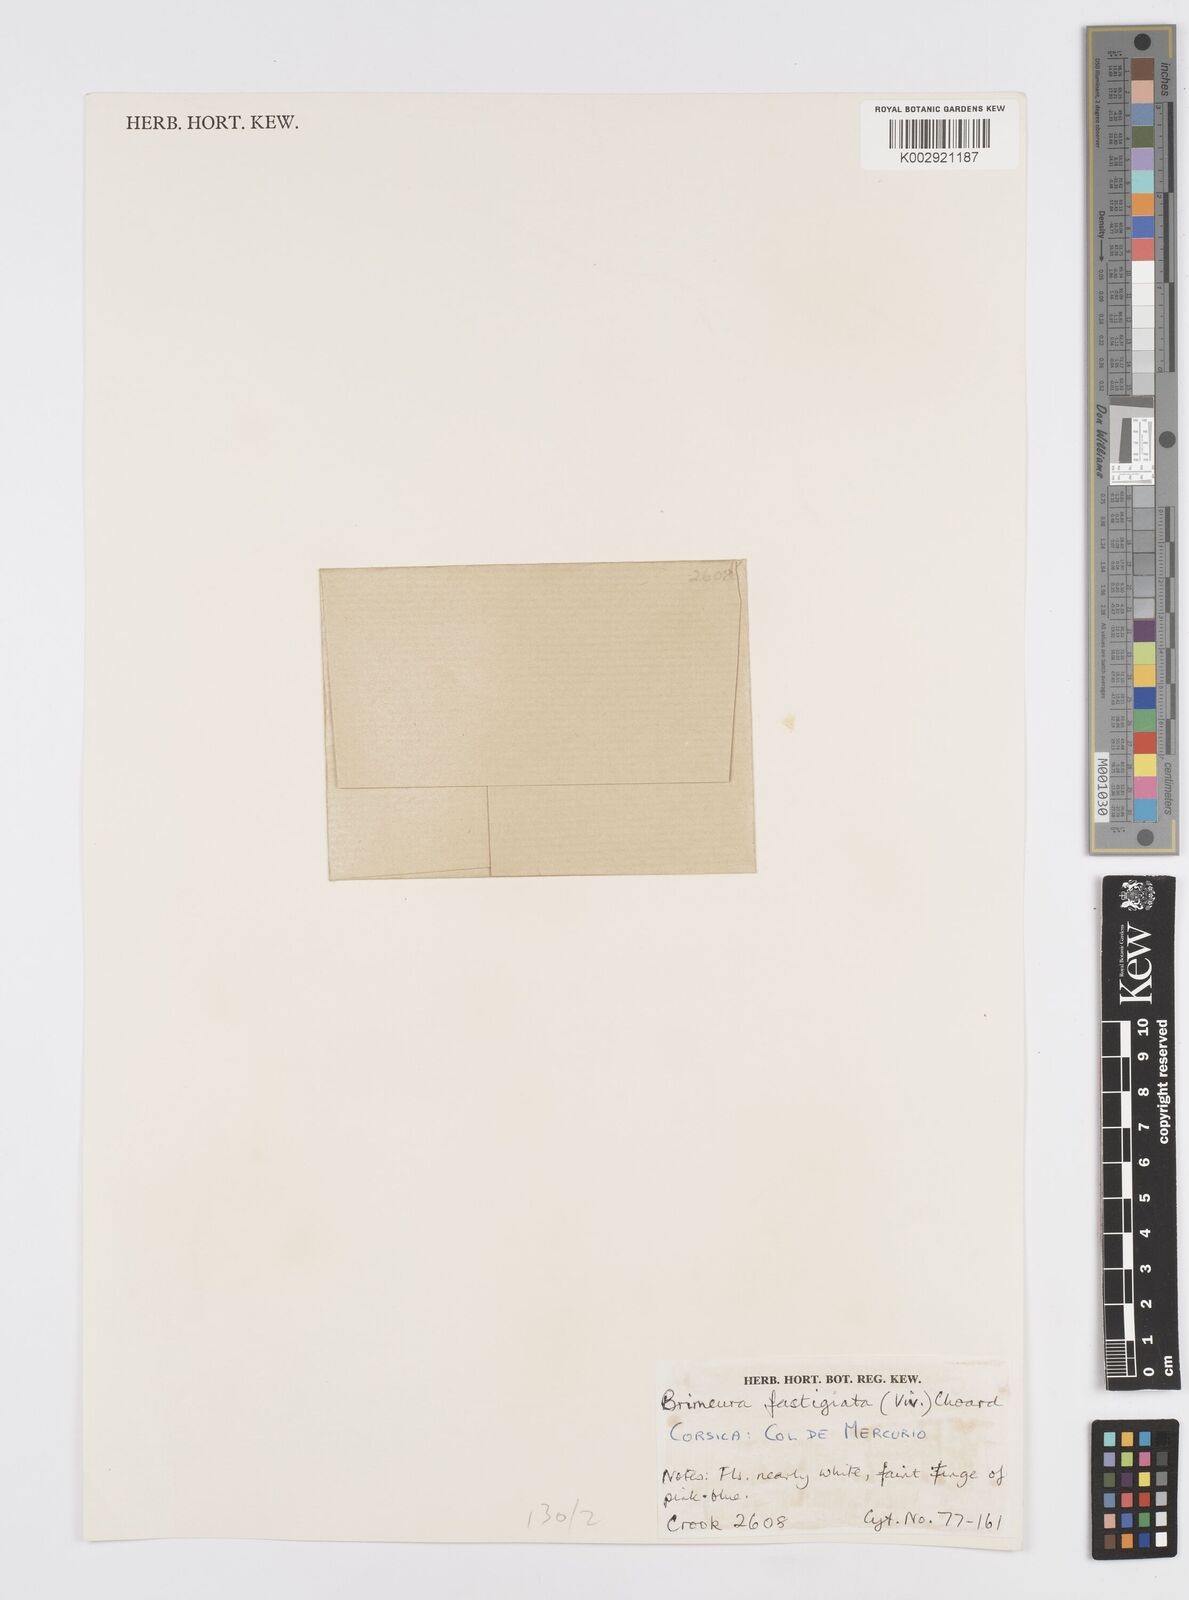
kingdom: Plantae
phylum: Tracheophyta
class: Liliopsida
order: Asparagales
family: Asparagaceae
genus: Brimeura
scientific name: Brimeura fastigiata
